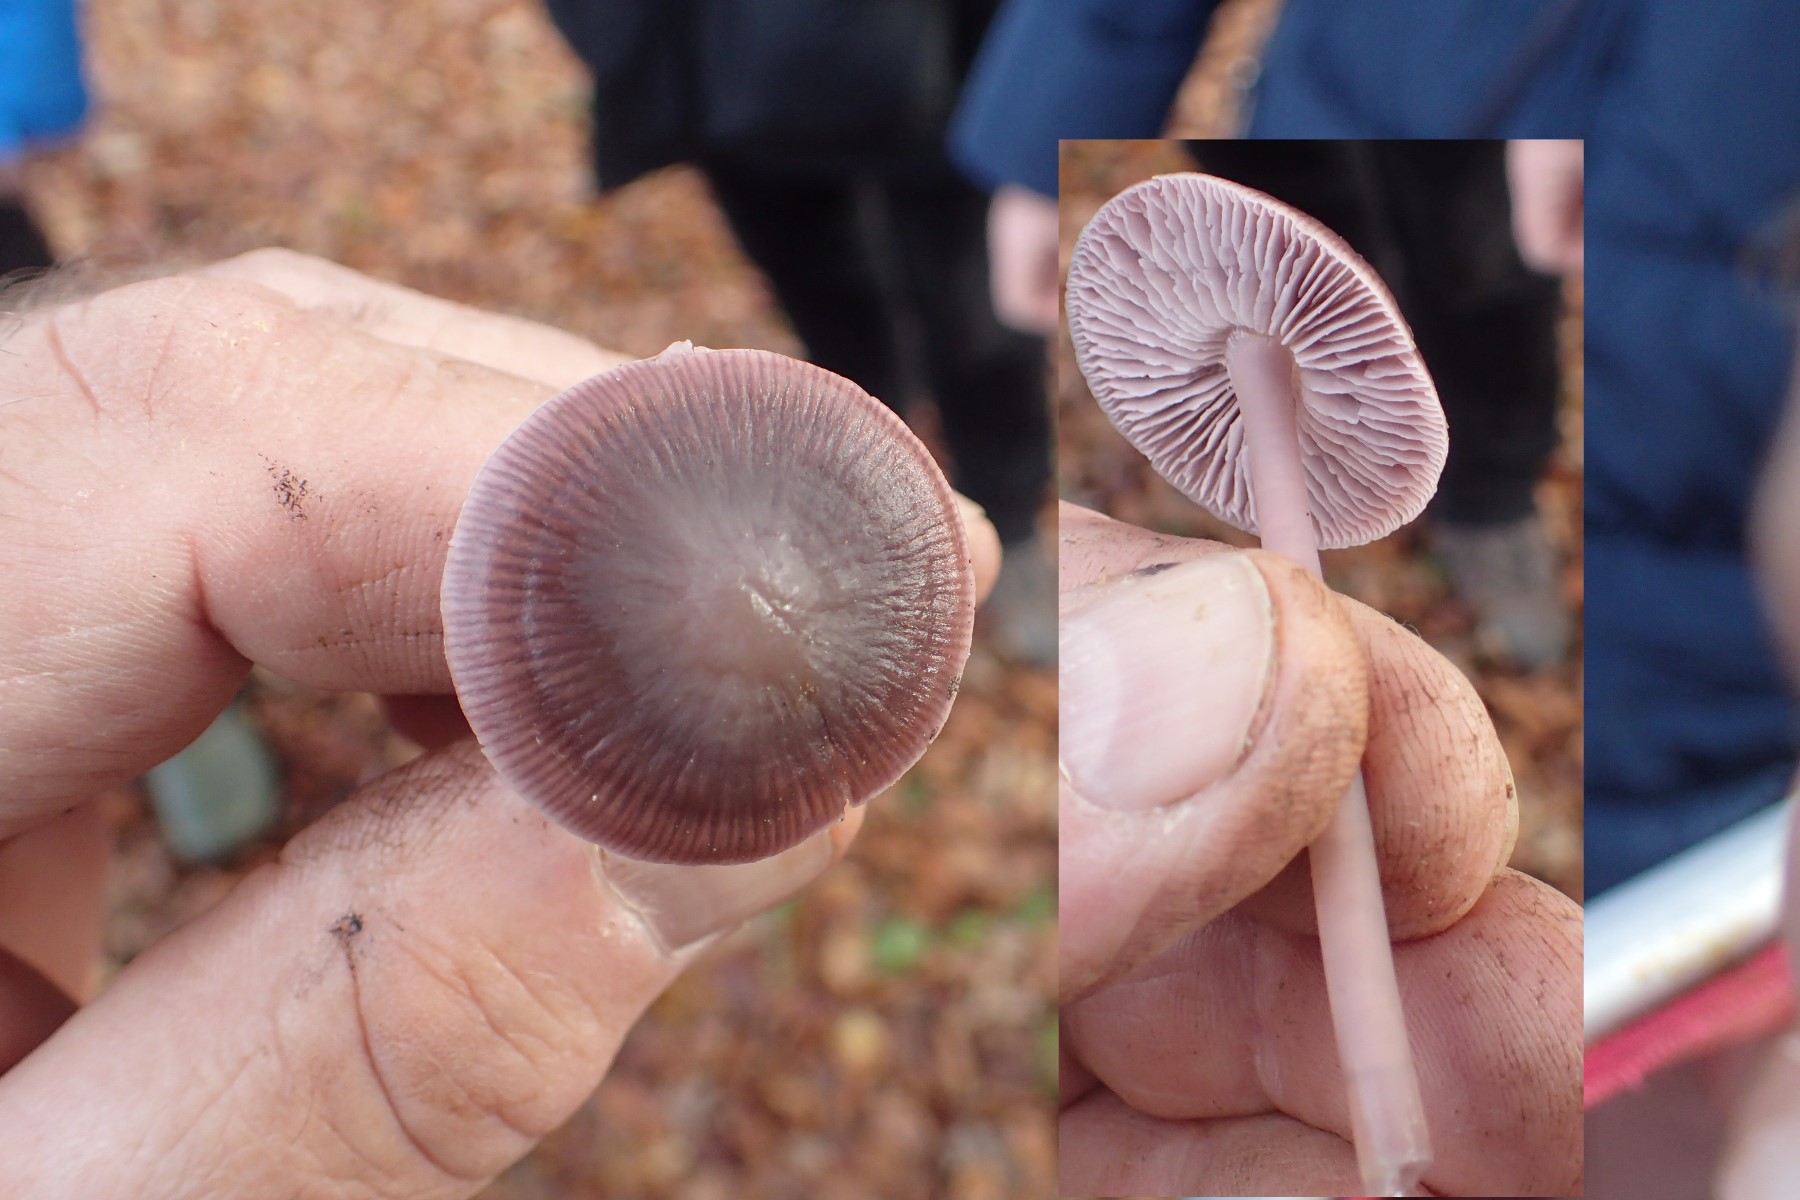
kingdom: Fungi
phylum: Basidiomycota
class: Agaricomycetes
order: Agaricales
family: Mycenaceae
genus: Prunulus
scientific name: Prunulus diosmus
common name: tobaks-huesvamp
